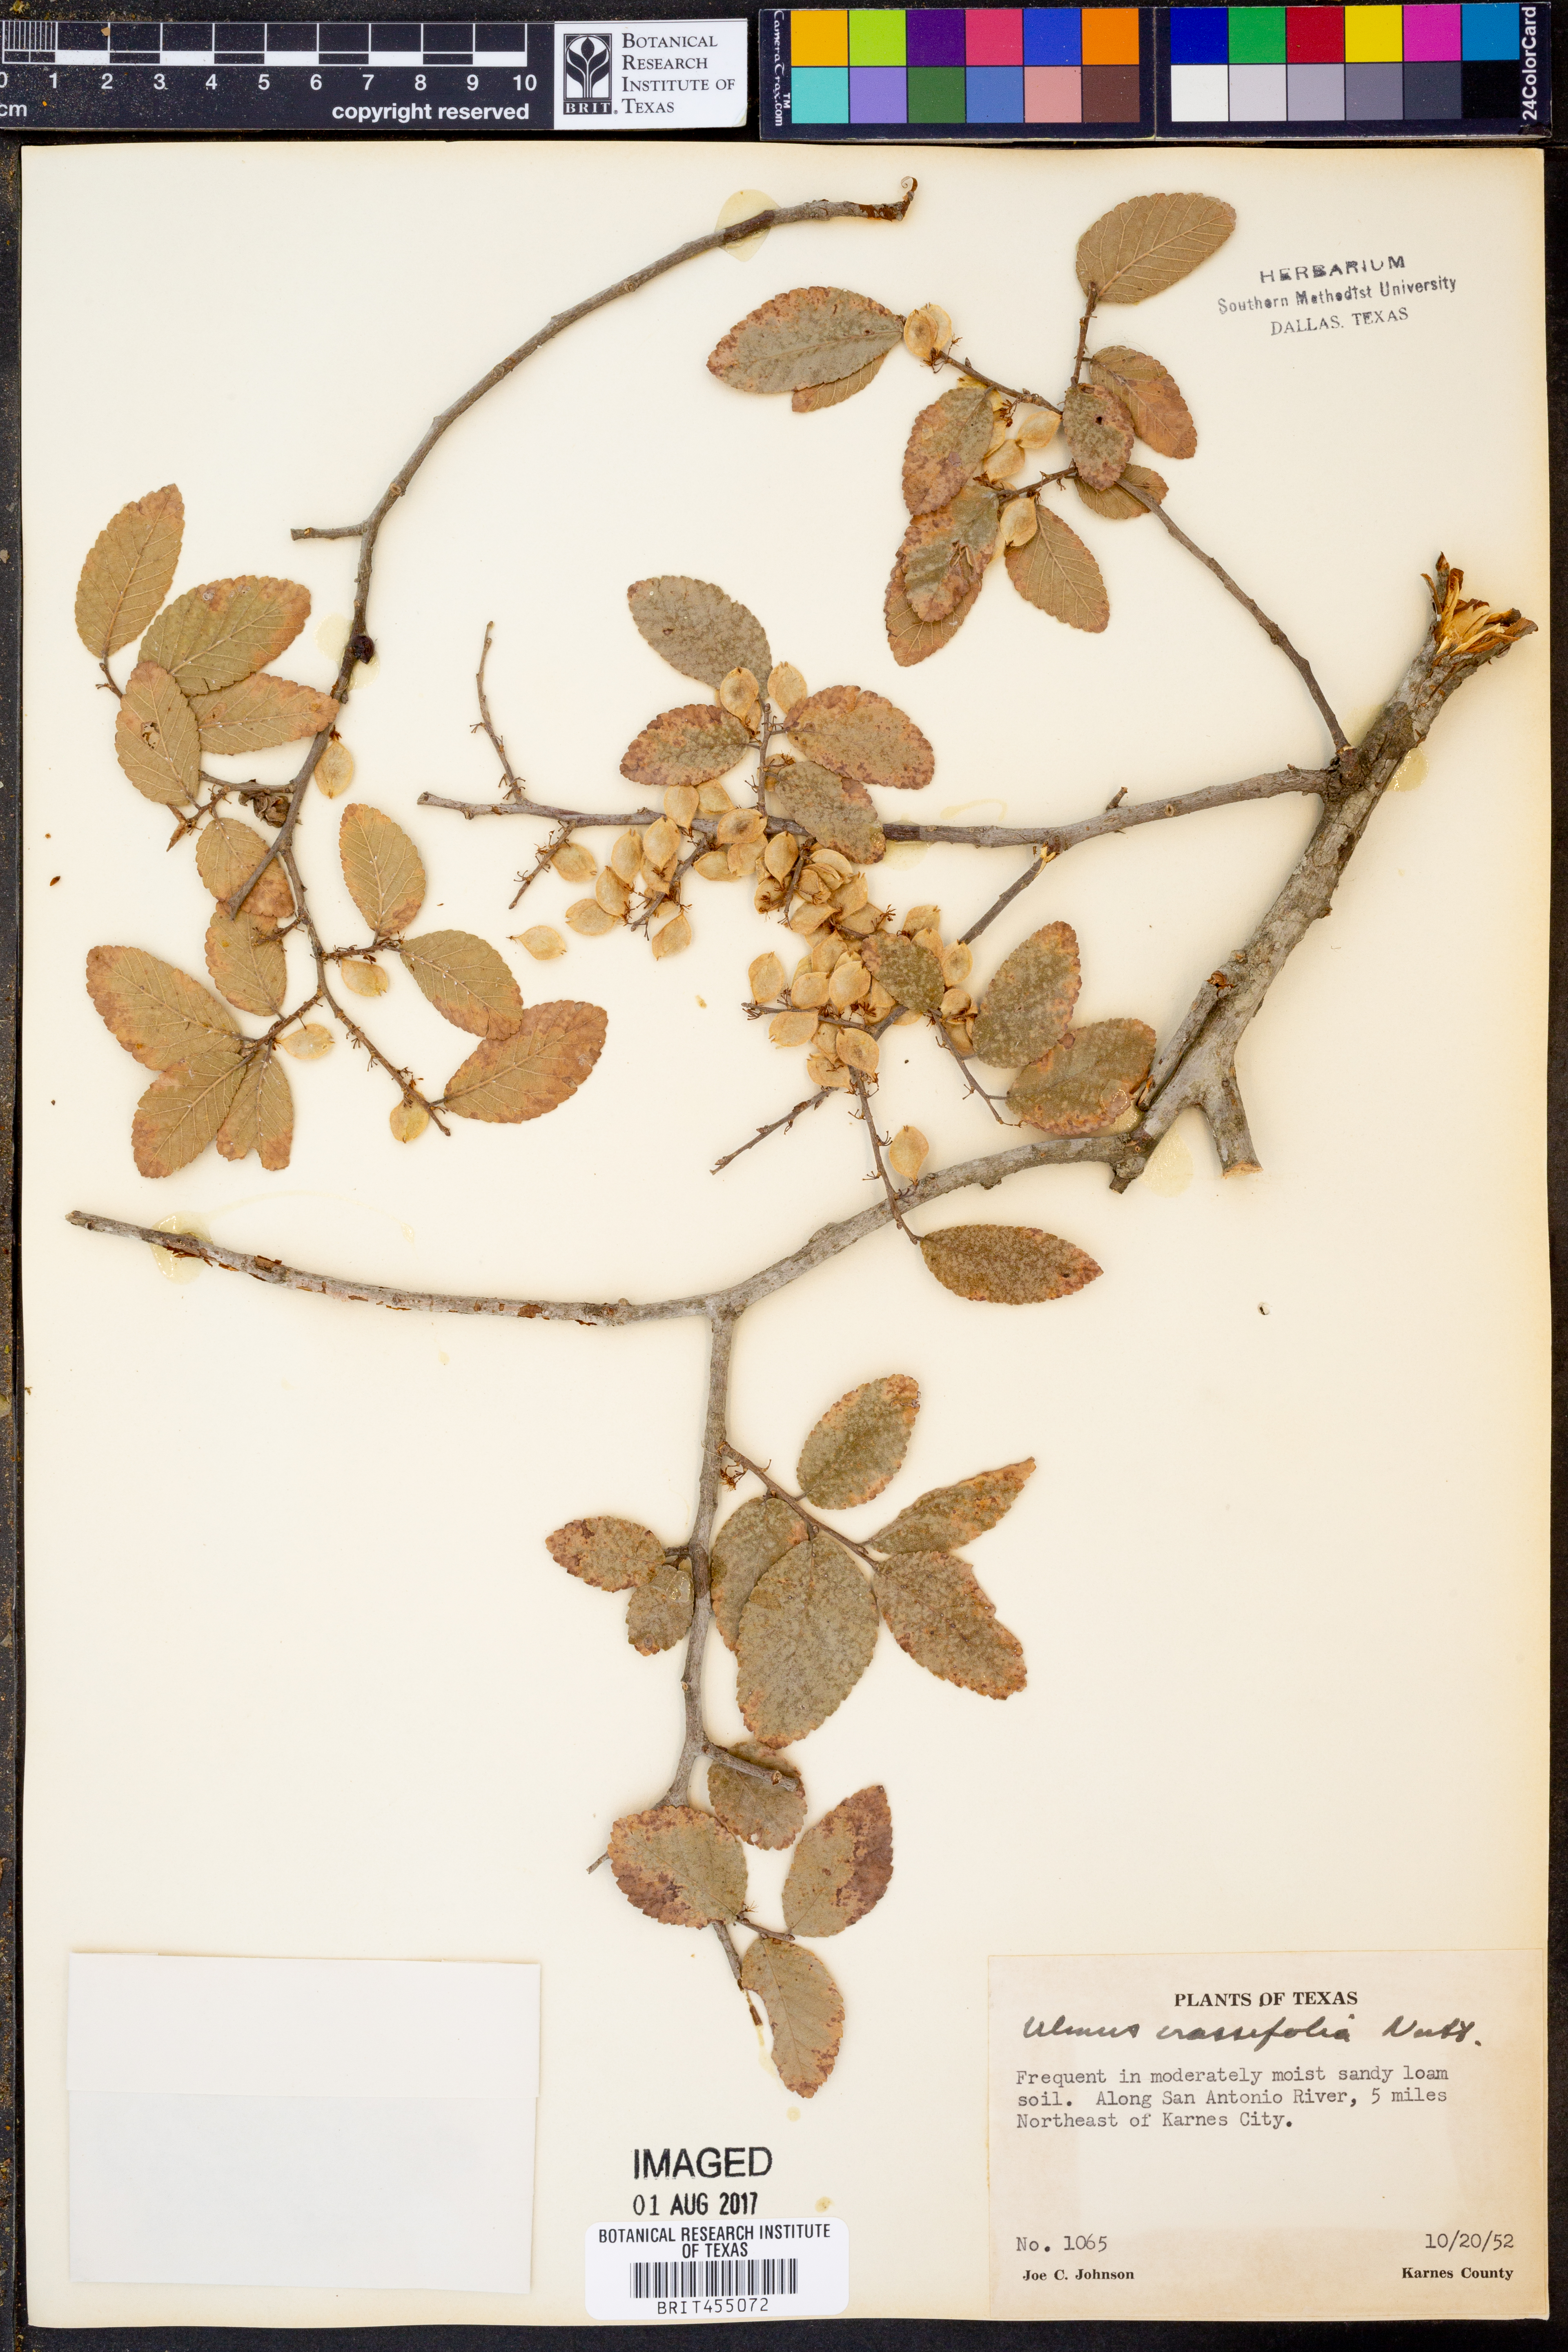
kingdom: Plantae
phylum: Tracheophyta
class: Magnoliopsida
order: Rosales
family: Ulmaceae
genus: Ulmus
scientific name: Ulmus crassifolia
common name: Basket elm
